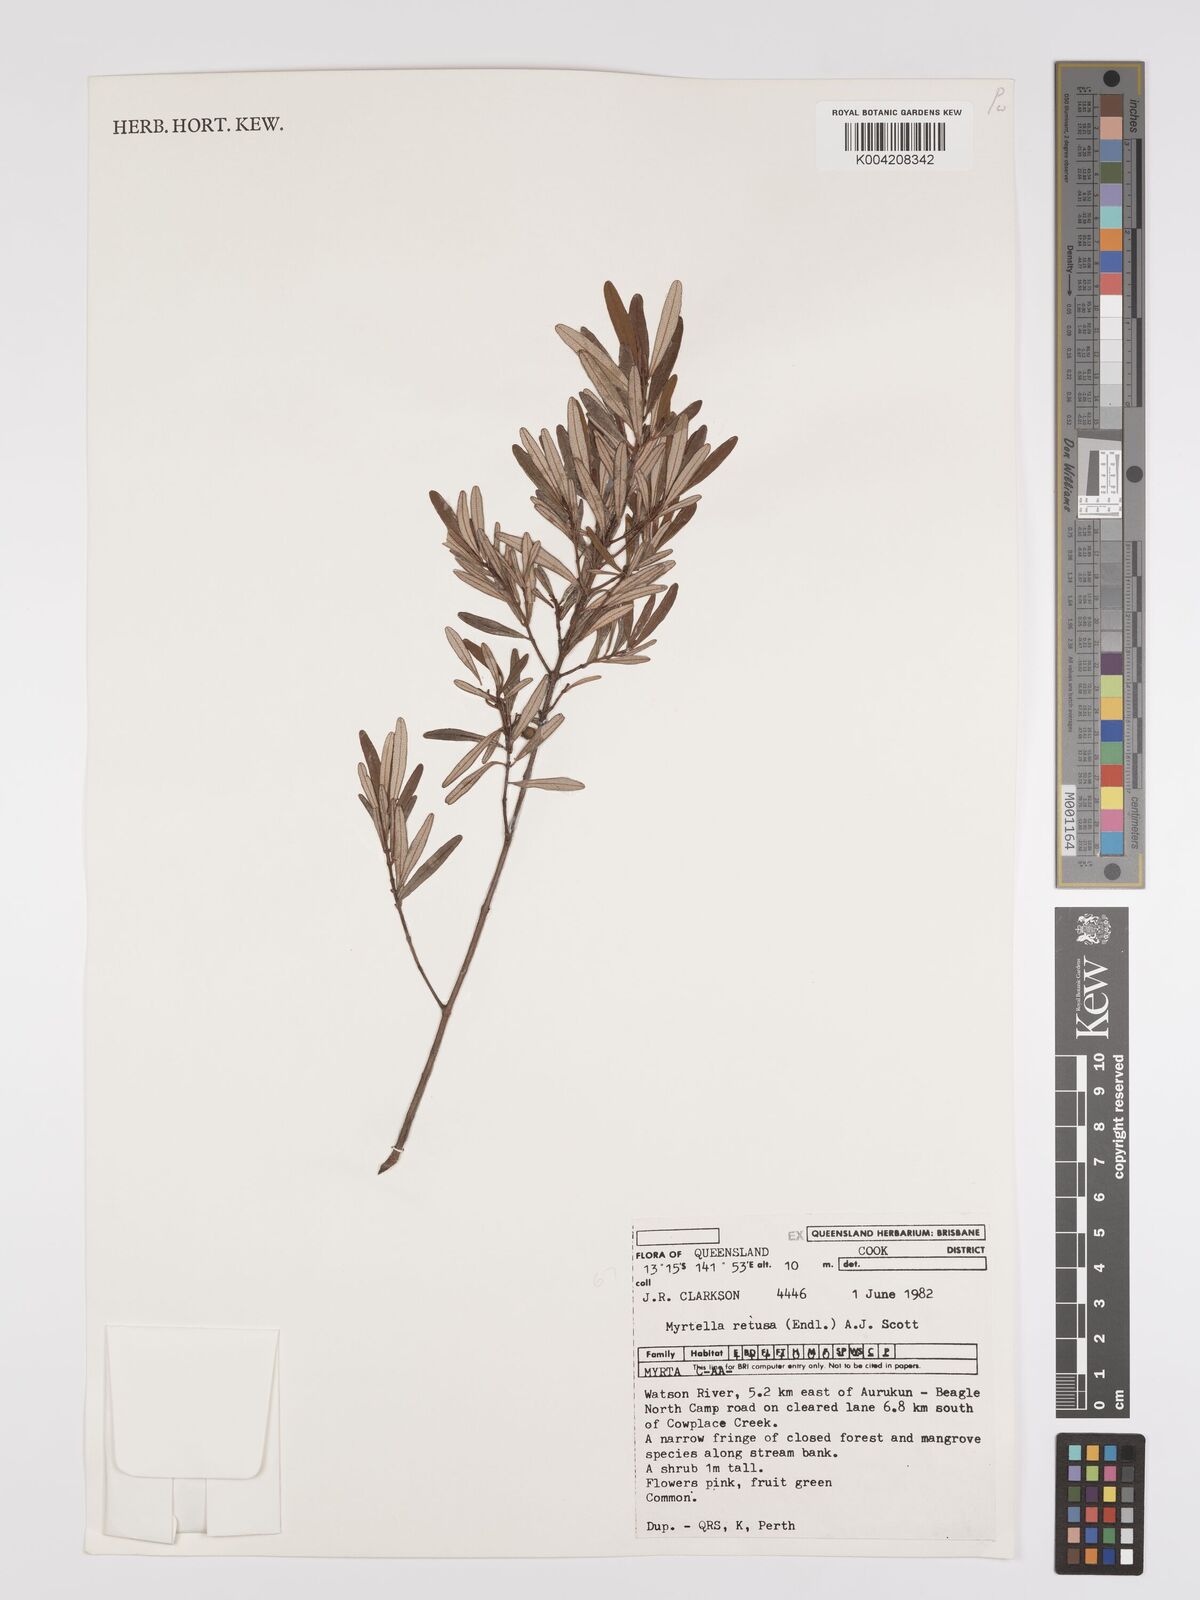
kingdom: Plantae
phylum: Tracheophyta
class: Magnoliopsida
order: Myrtales
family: Myrtaceae
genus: Lithomyrtus
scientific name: Lithomyrtus retusa
